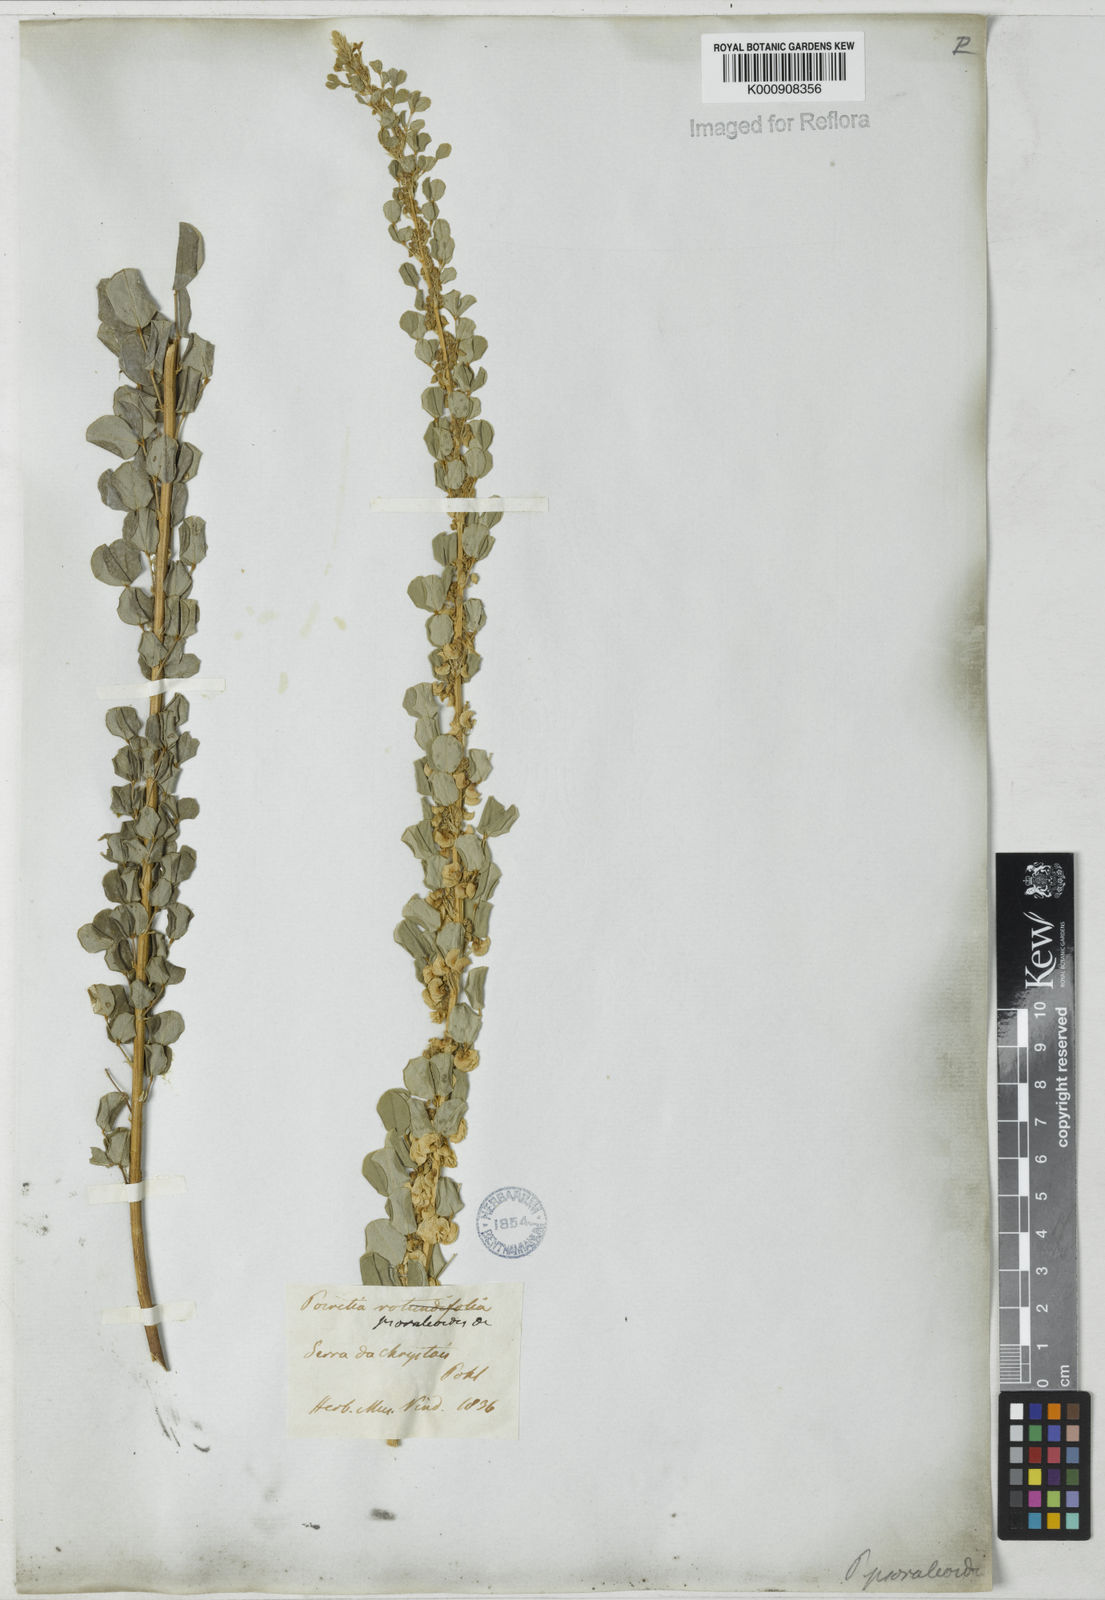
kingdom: Plantae
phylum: Tracheophyta
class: Magnoliopsida
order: Fabales
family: Fabaceae
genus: Poiretia
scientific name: Poiretia
